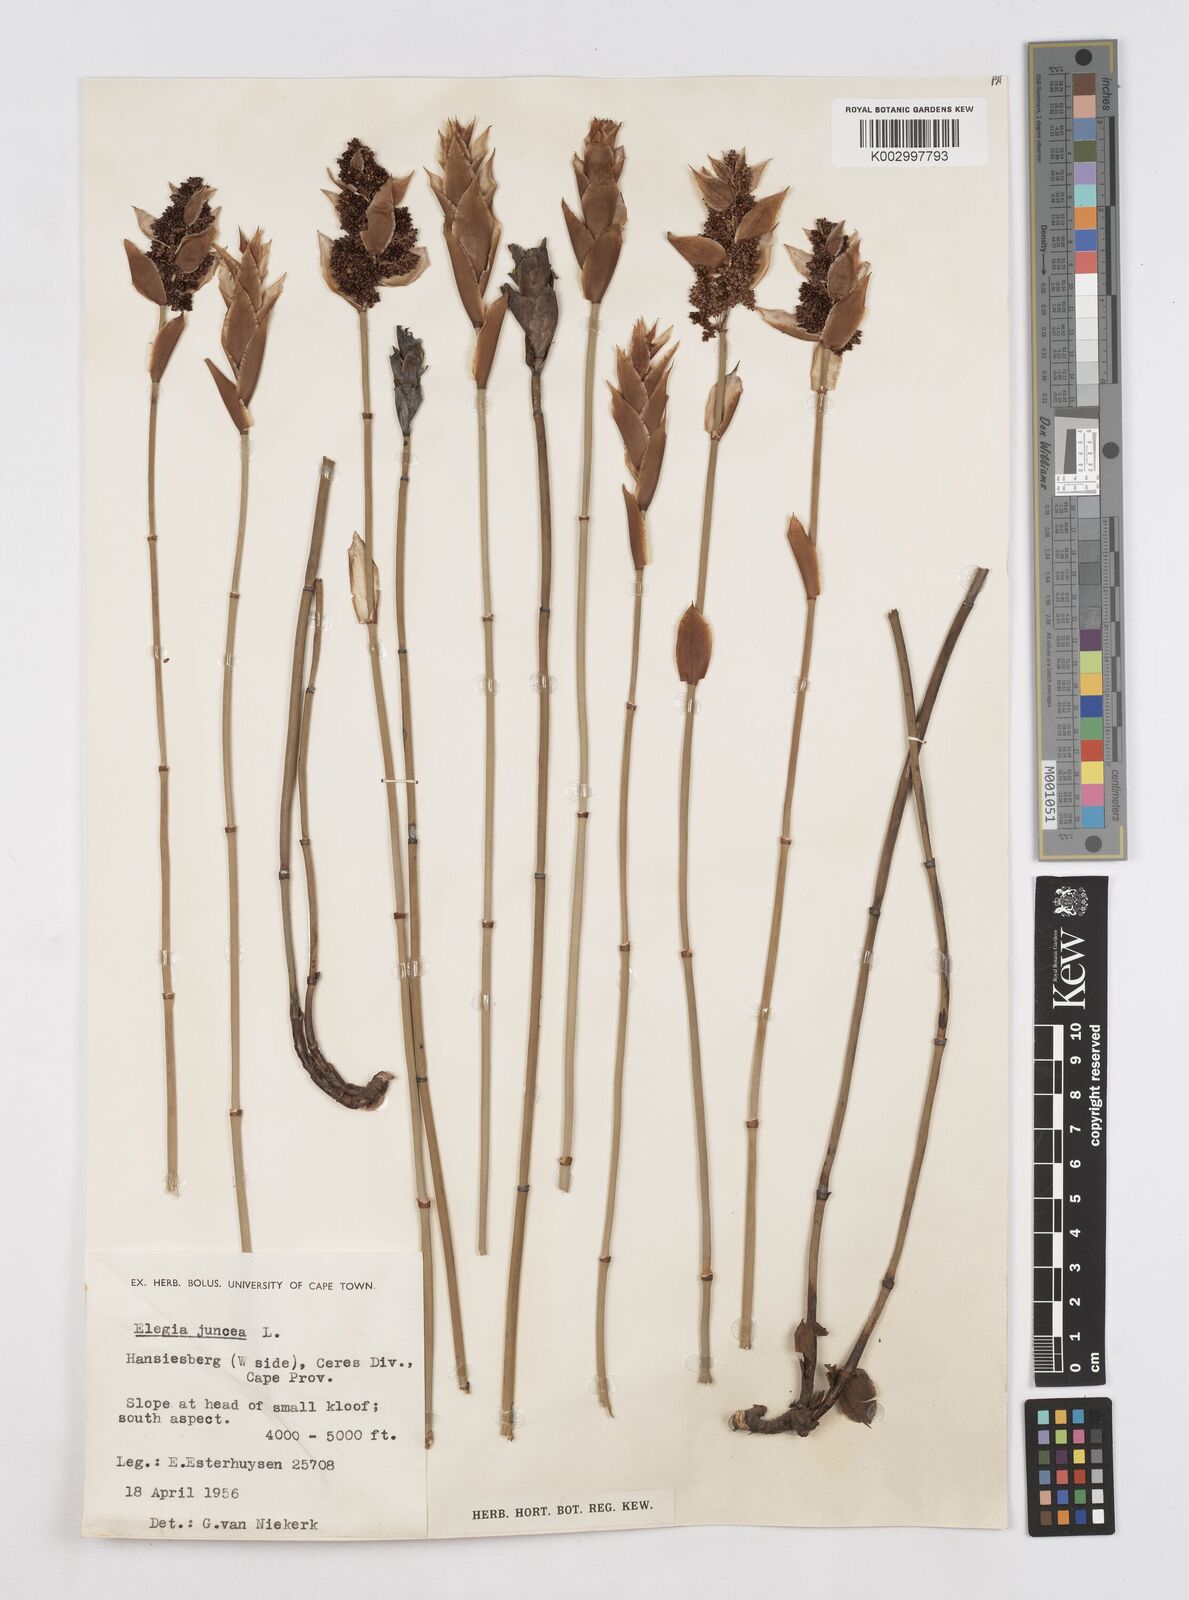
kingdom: Plantae
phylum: Tracheophyta
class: Liliopsida
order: Poales
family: Restionaceae
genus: Elegia
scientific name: Elegia juncea
